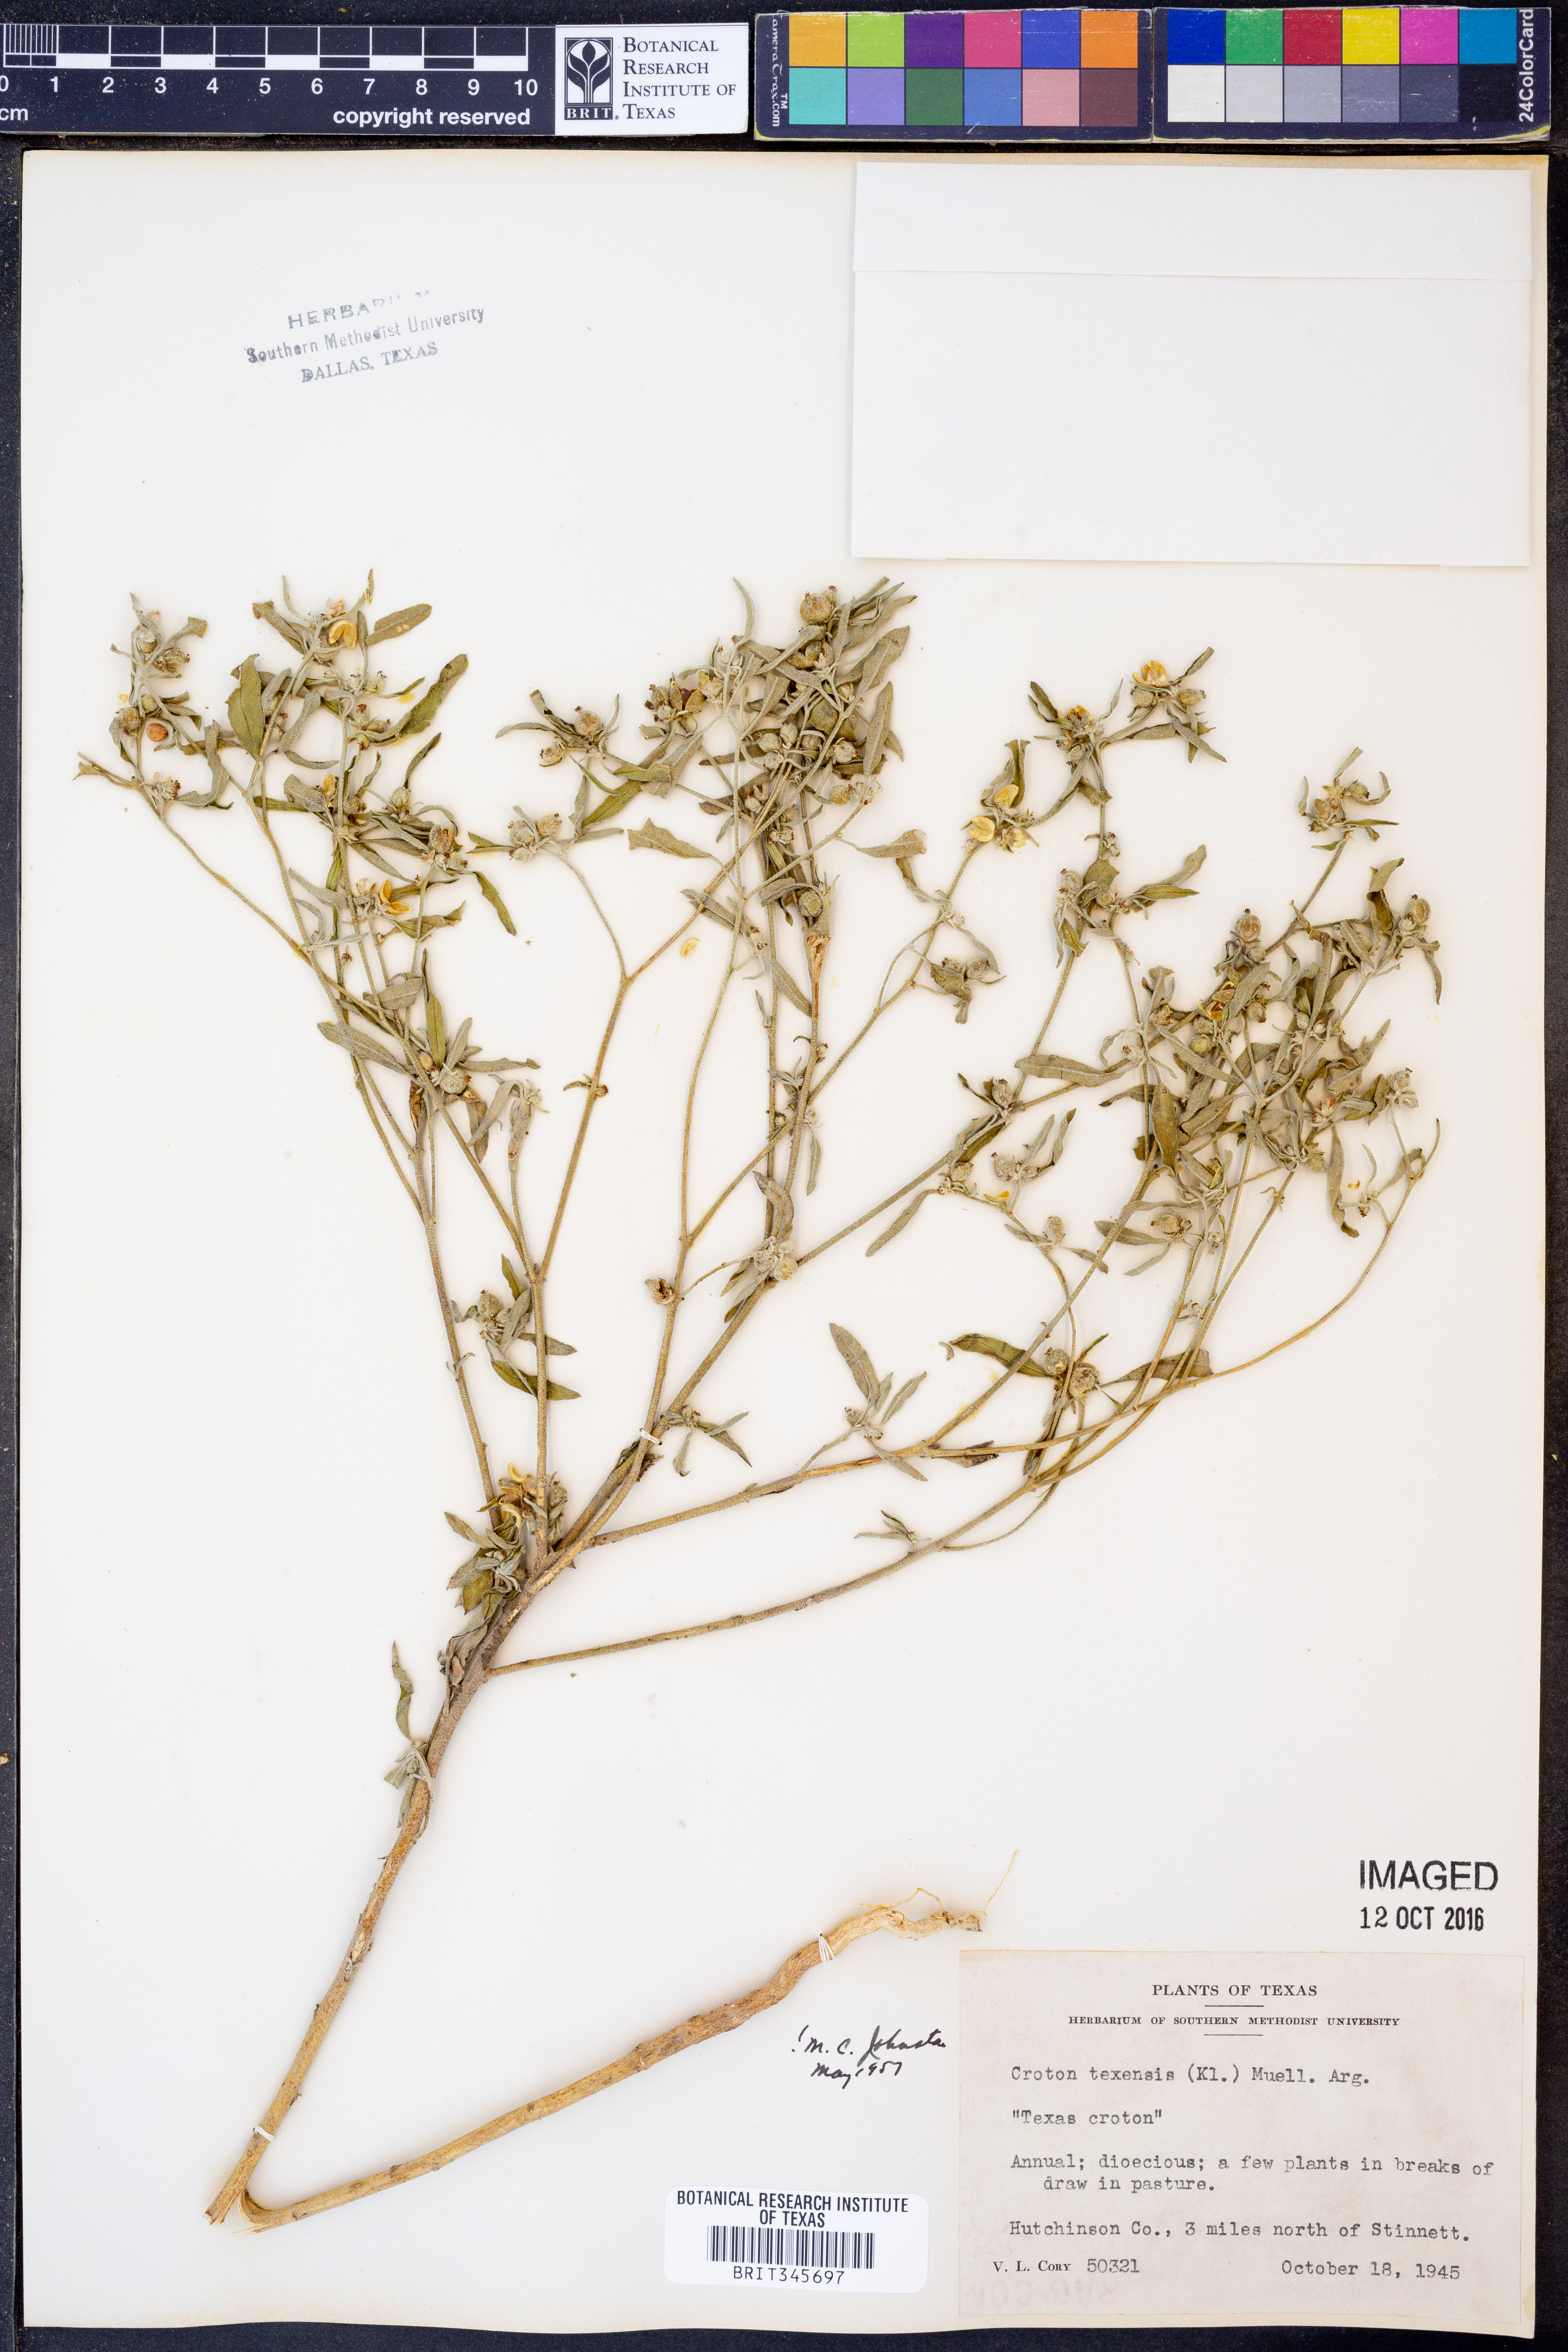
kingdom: Plantae
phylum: Tracheophyta
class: Magnoliopsida
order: Malpighiales
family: Euphorbiaceae
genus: Croton
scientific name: Croton texensis
